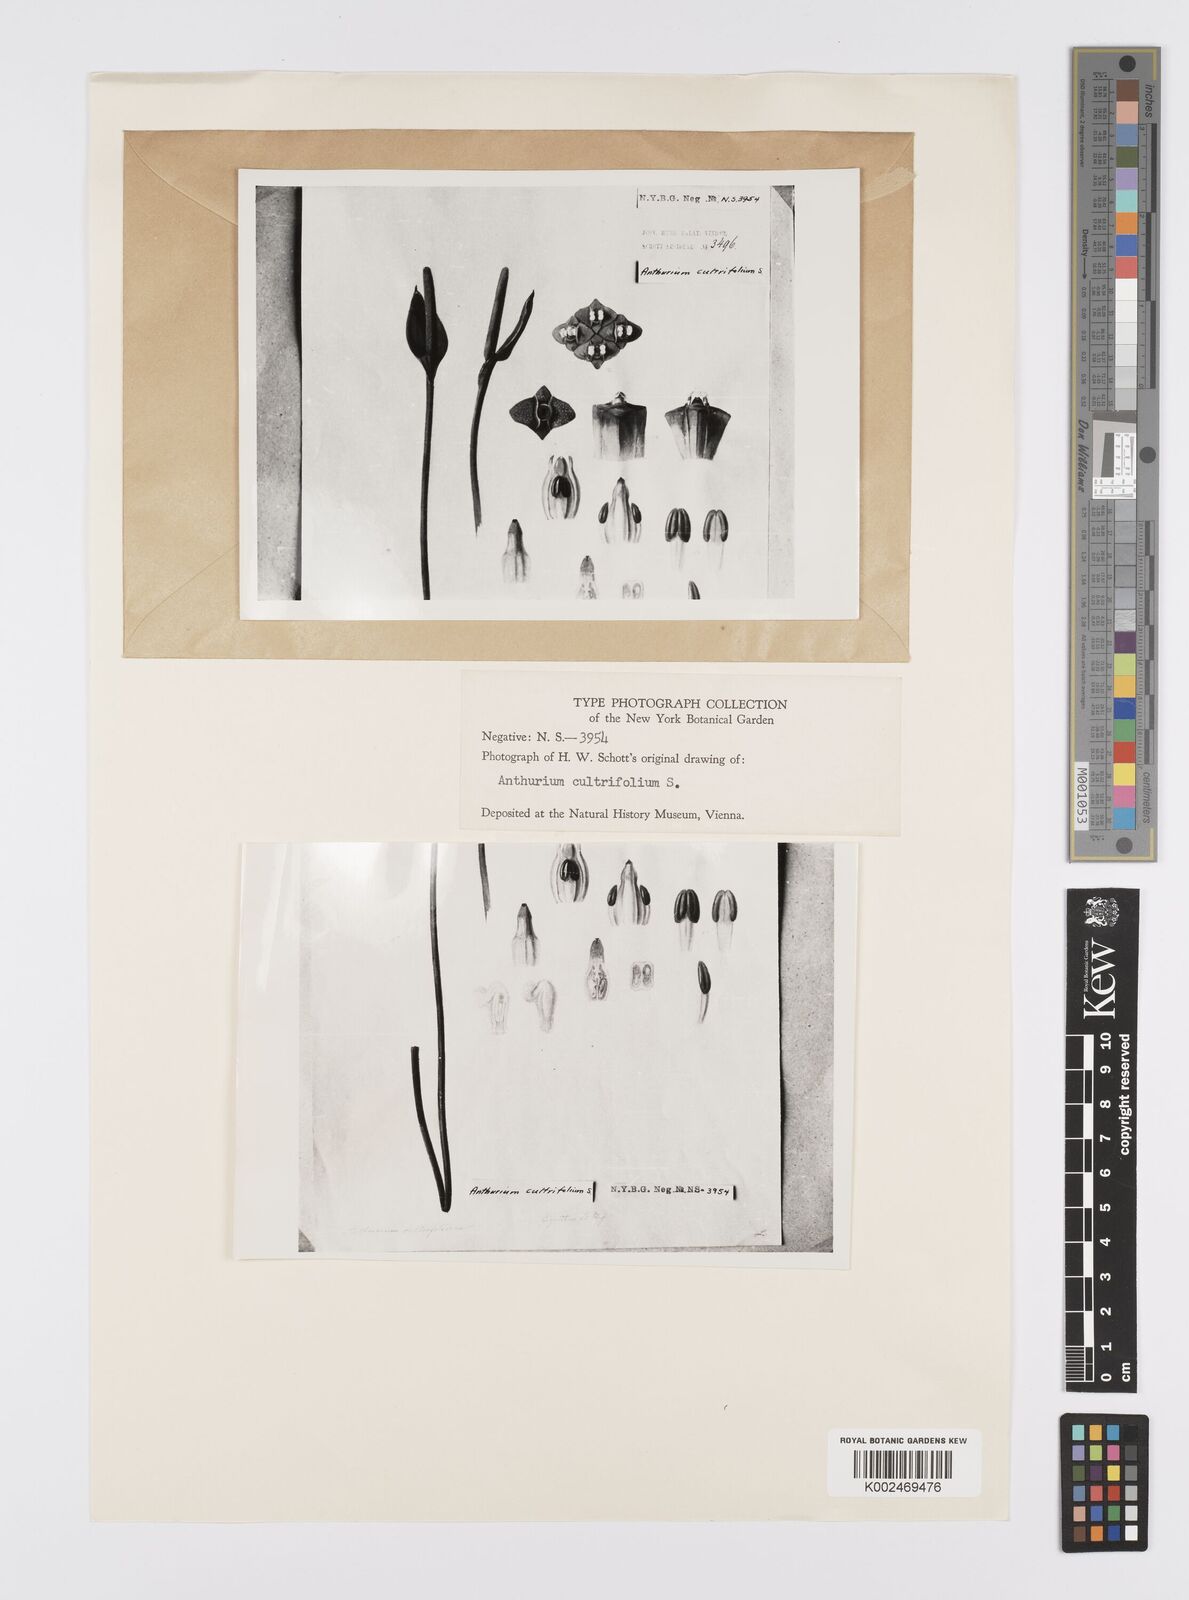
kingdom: Plantae
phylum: Tracheophyta
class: Liliopsida
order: Alismatales
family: Araceae
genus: Anthurium
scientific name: Anthurium illepidum
